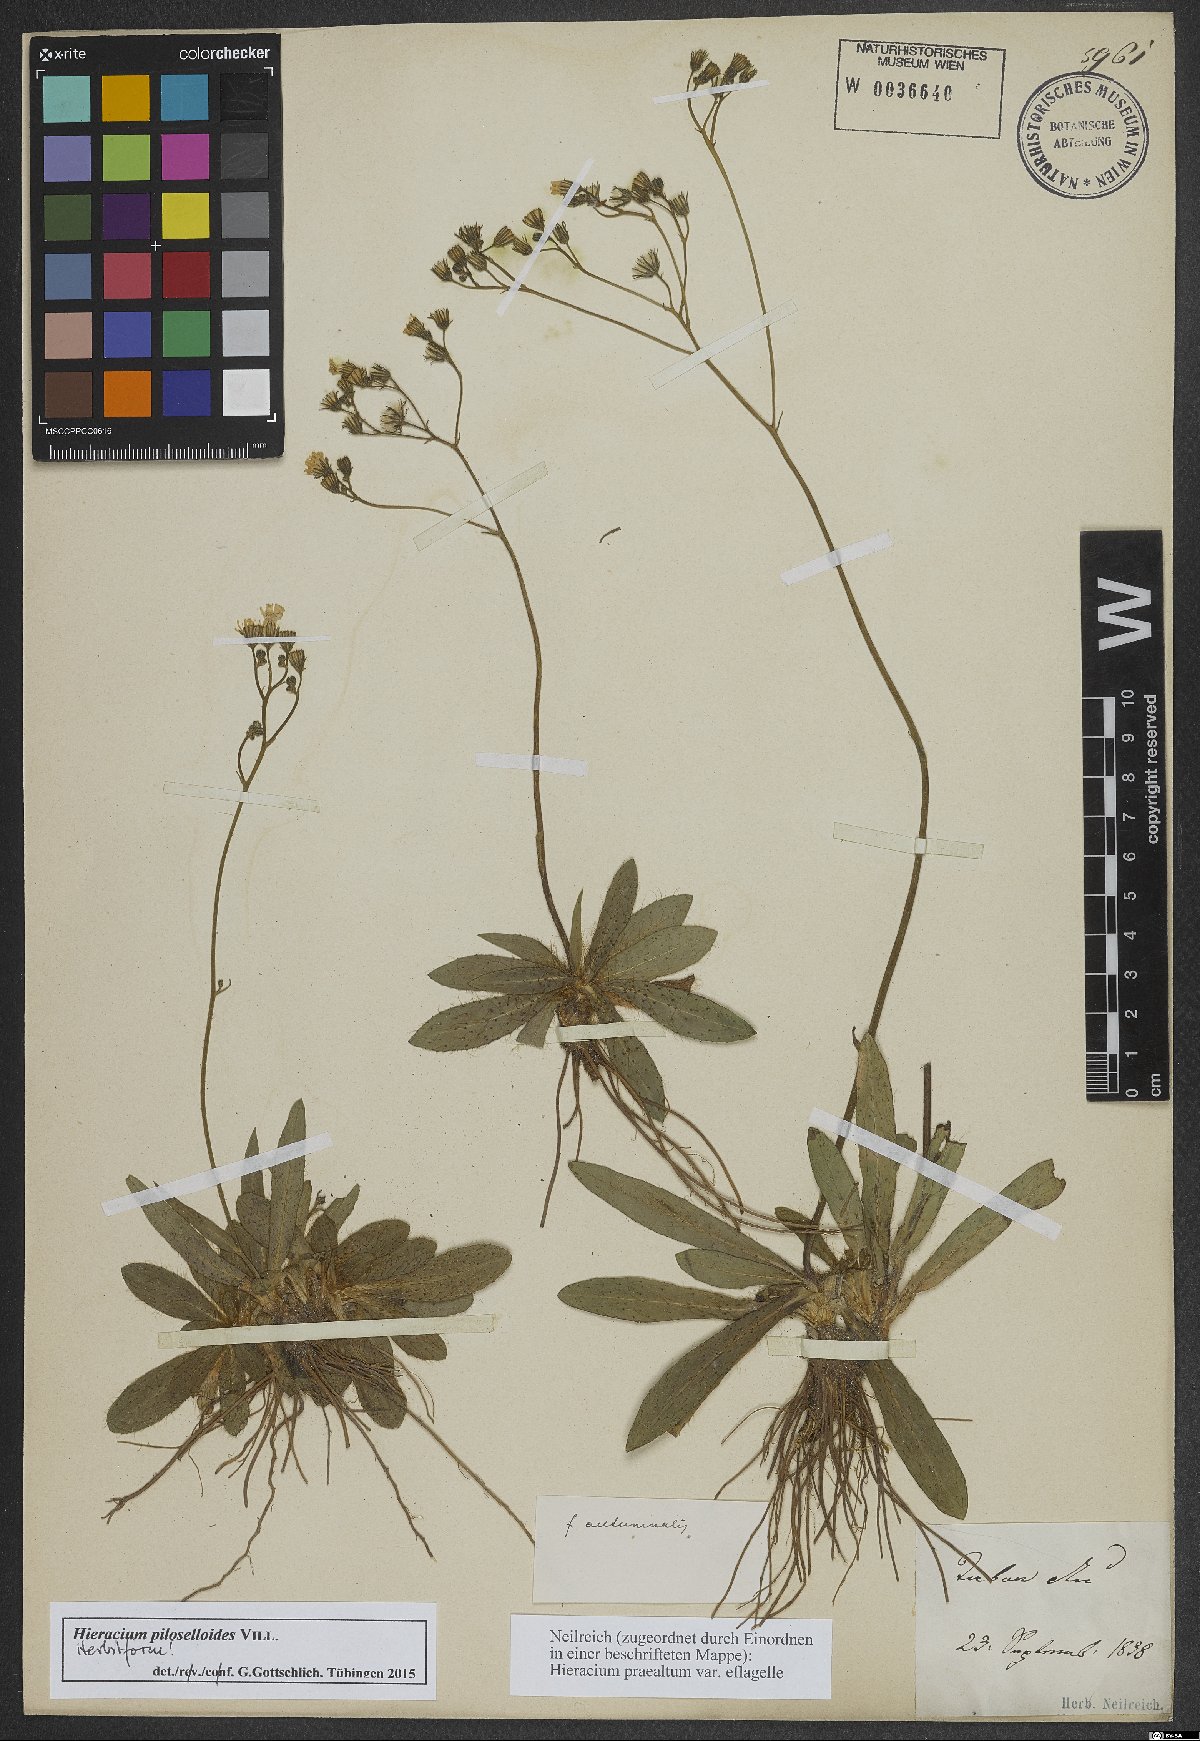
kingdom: Plantae
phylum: Tracheophyta
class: Magnoliopsida
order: Asterales
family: Asteraceae
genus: Pilosella
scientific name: Pilosella piloselloides
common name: Glaucous king-devil
